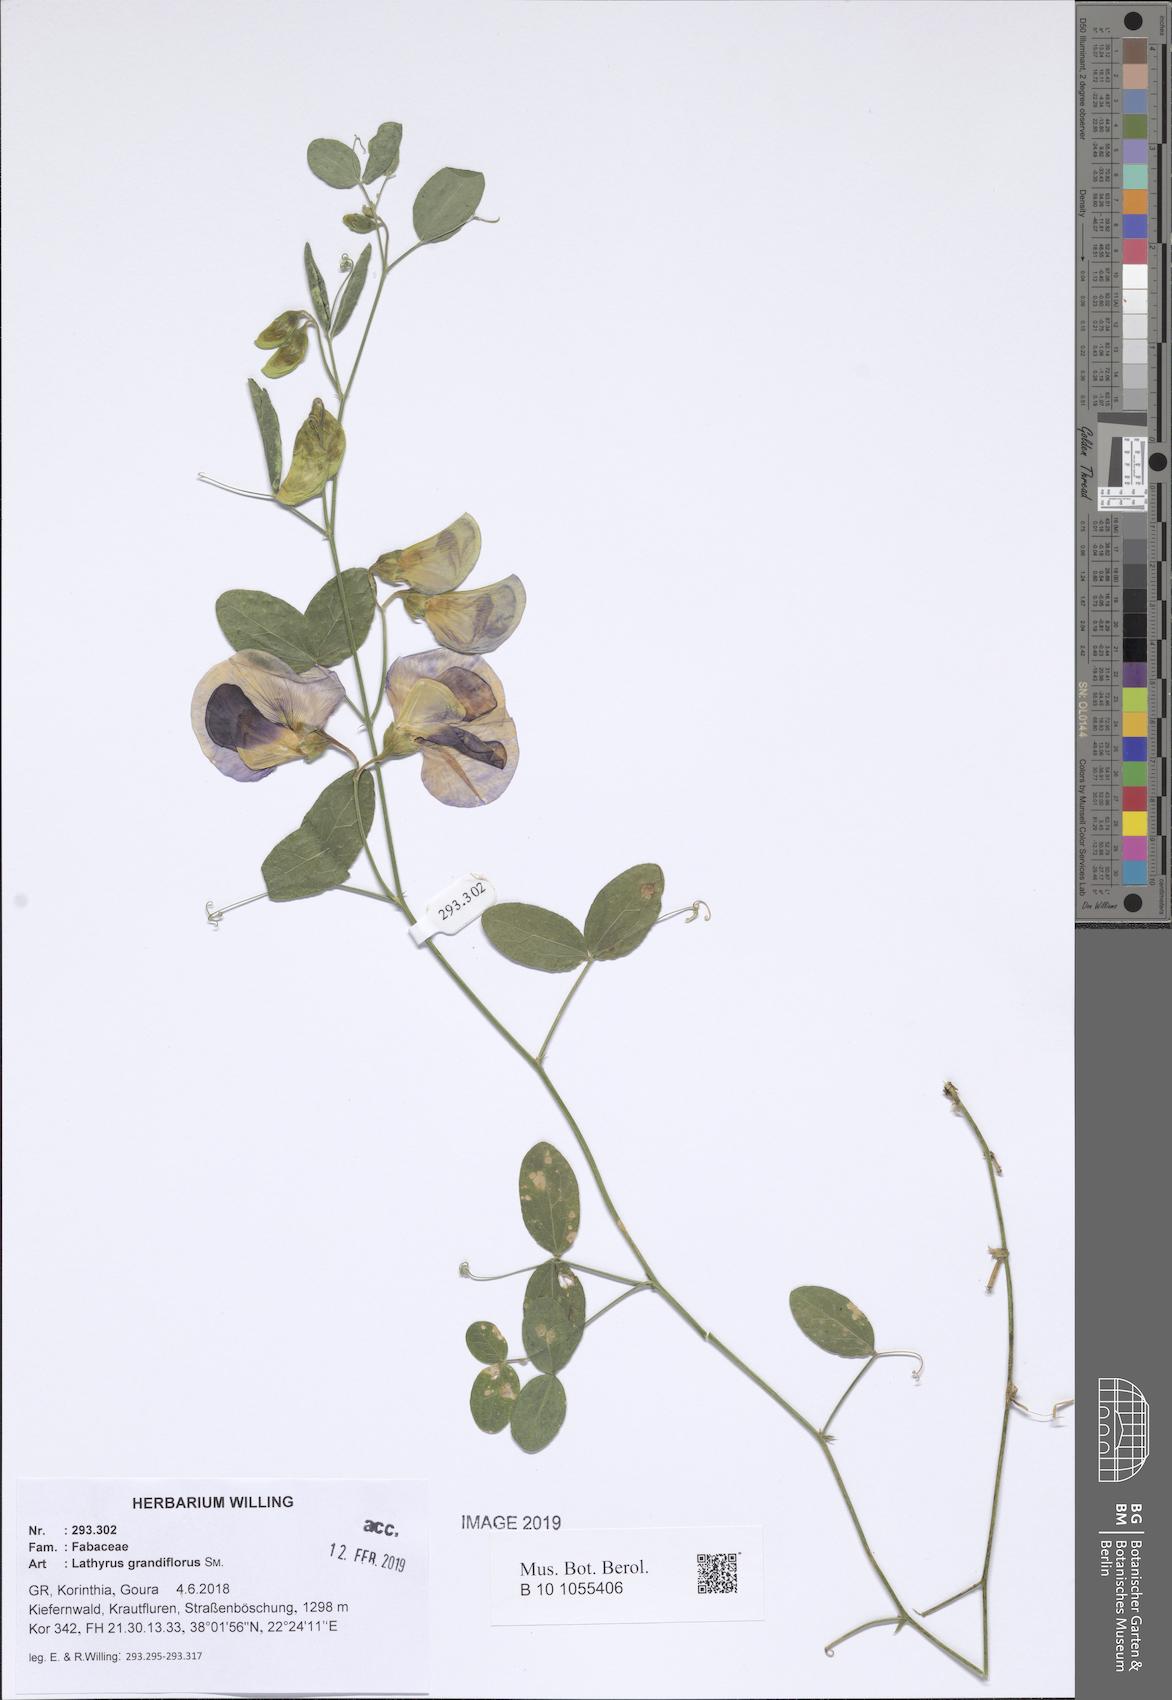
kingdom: Plantae
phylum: Tracheophyta
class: Magnoliopsida
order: Fabales
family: Fabaceae
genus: Lathyrus
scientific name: Lathyrus grandiflorus
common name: Two-flowered everlasting-pea
